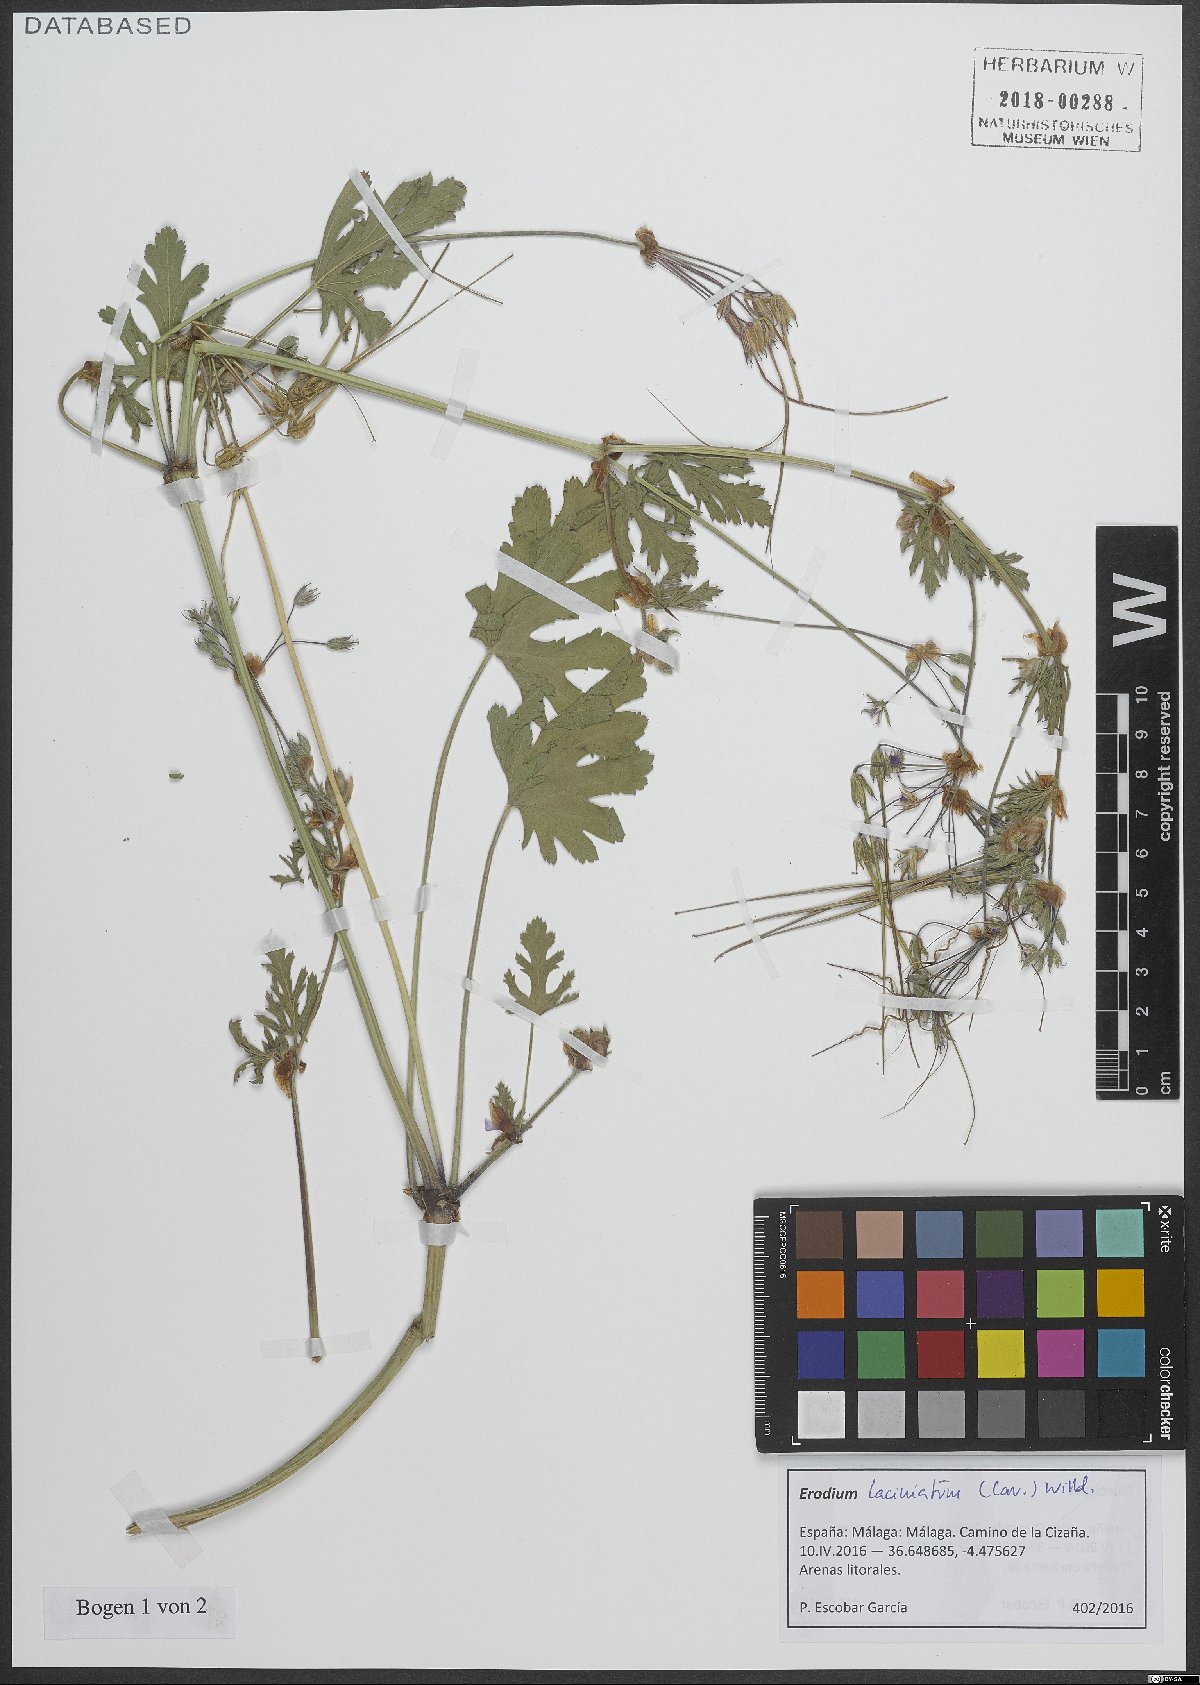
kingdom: Plantae
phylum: Tracheophyta
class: Magnoliopsida
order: Geraniales
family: Geraniaceae
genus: Erodium
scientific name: Erodium laciniatum
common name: Cutleaf stork's bill
